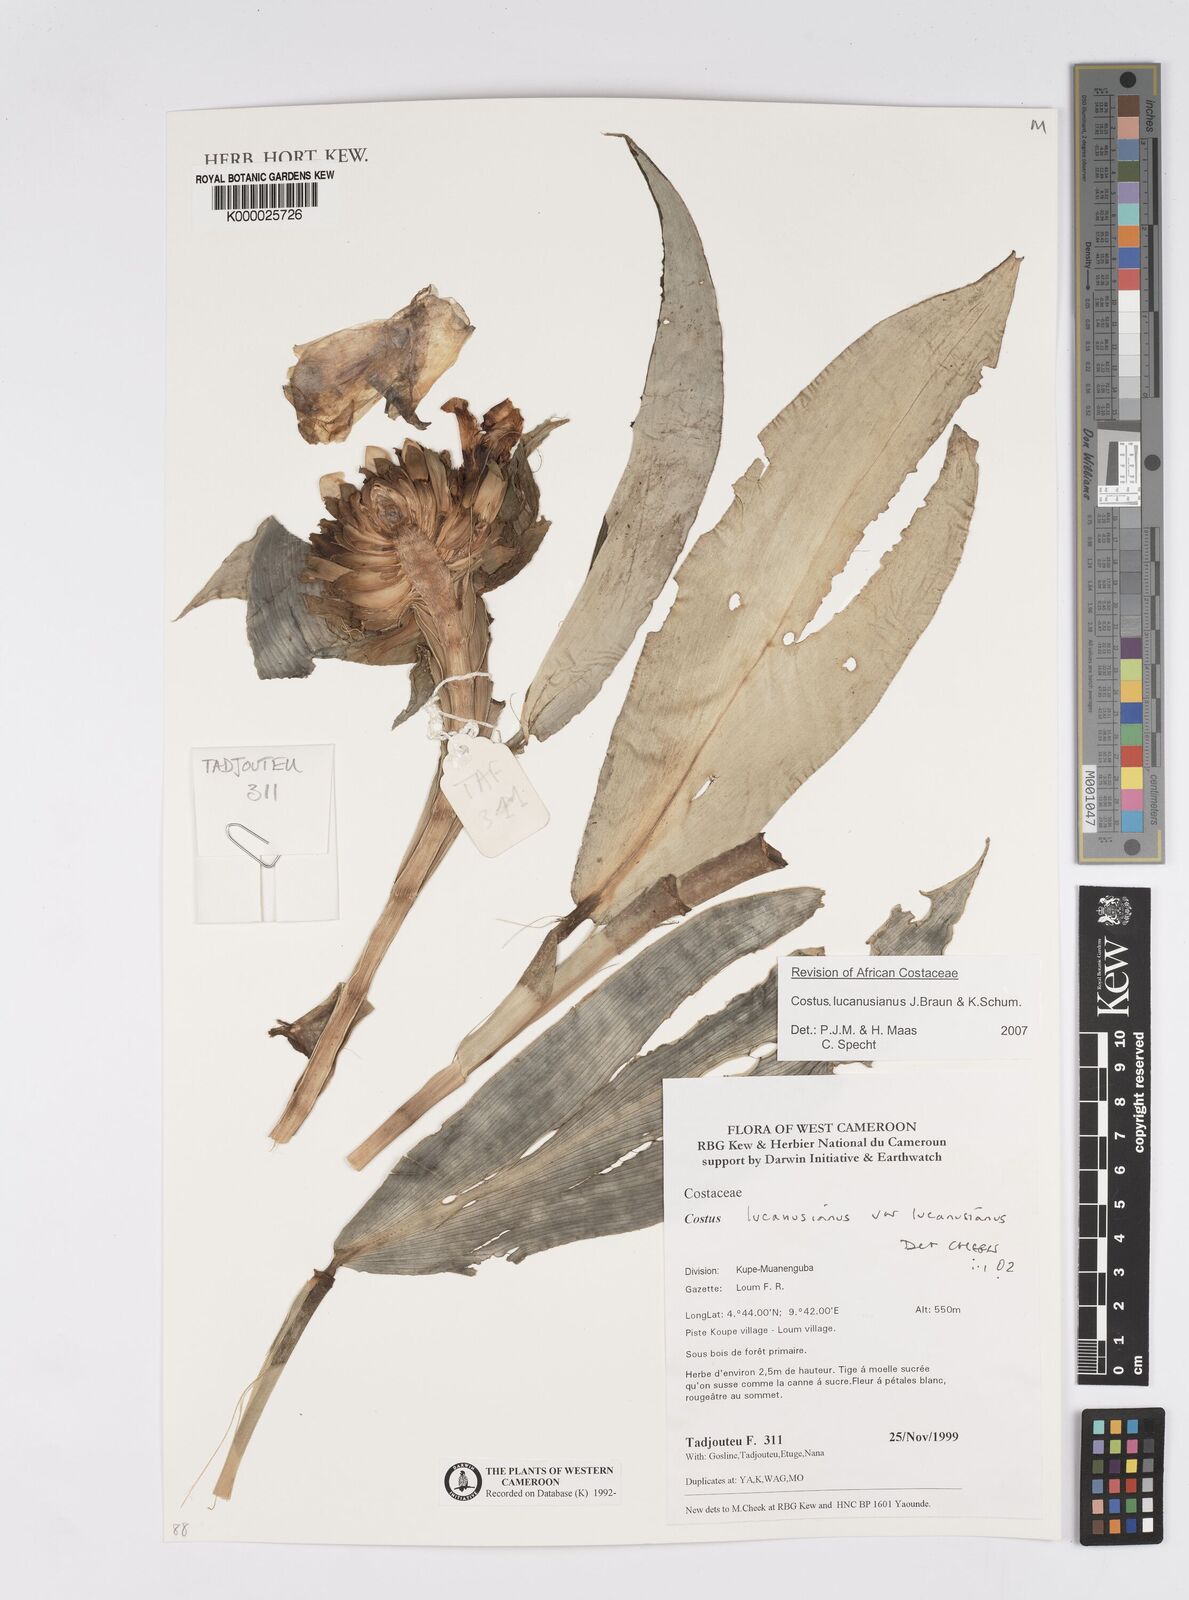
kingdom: Plantae
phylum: Tracheophyta
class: Liliopsida
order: Zingiberales
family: Costaceae
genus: Costus
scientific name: Costus lucanusianus
